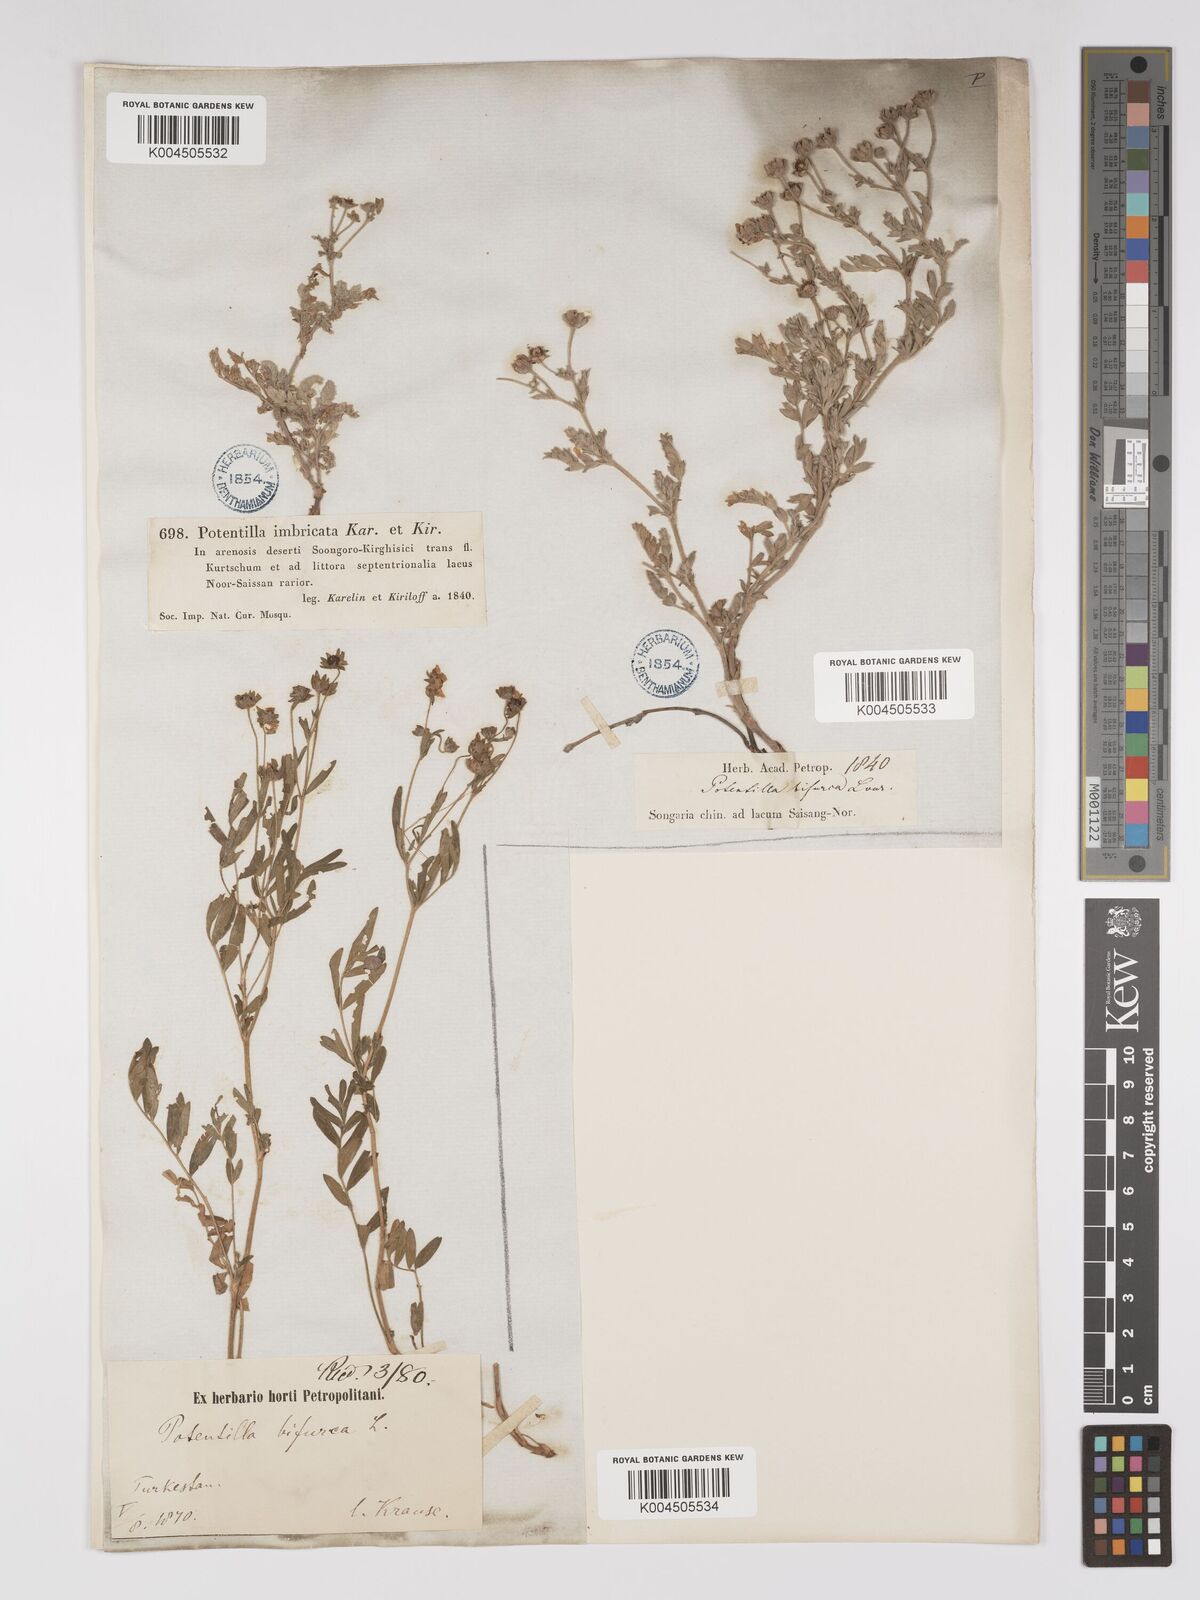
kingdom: Plantae
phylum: Tracheophyta
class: Magnoliopsida
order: Rosales
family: Rosaceae
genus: Sibbaldianthe
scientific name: Sibbaldianthe bifurca
